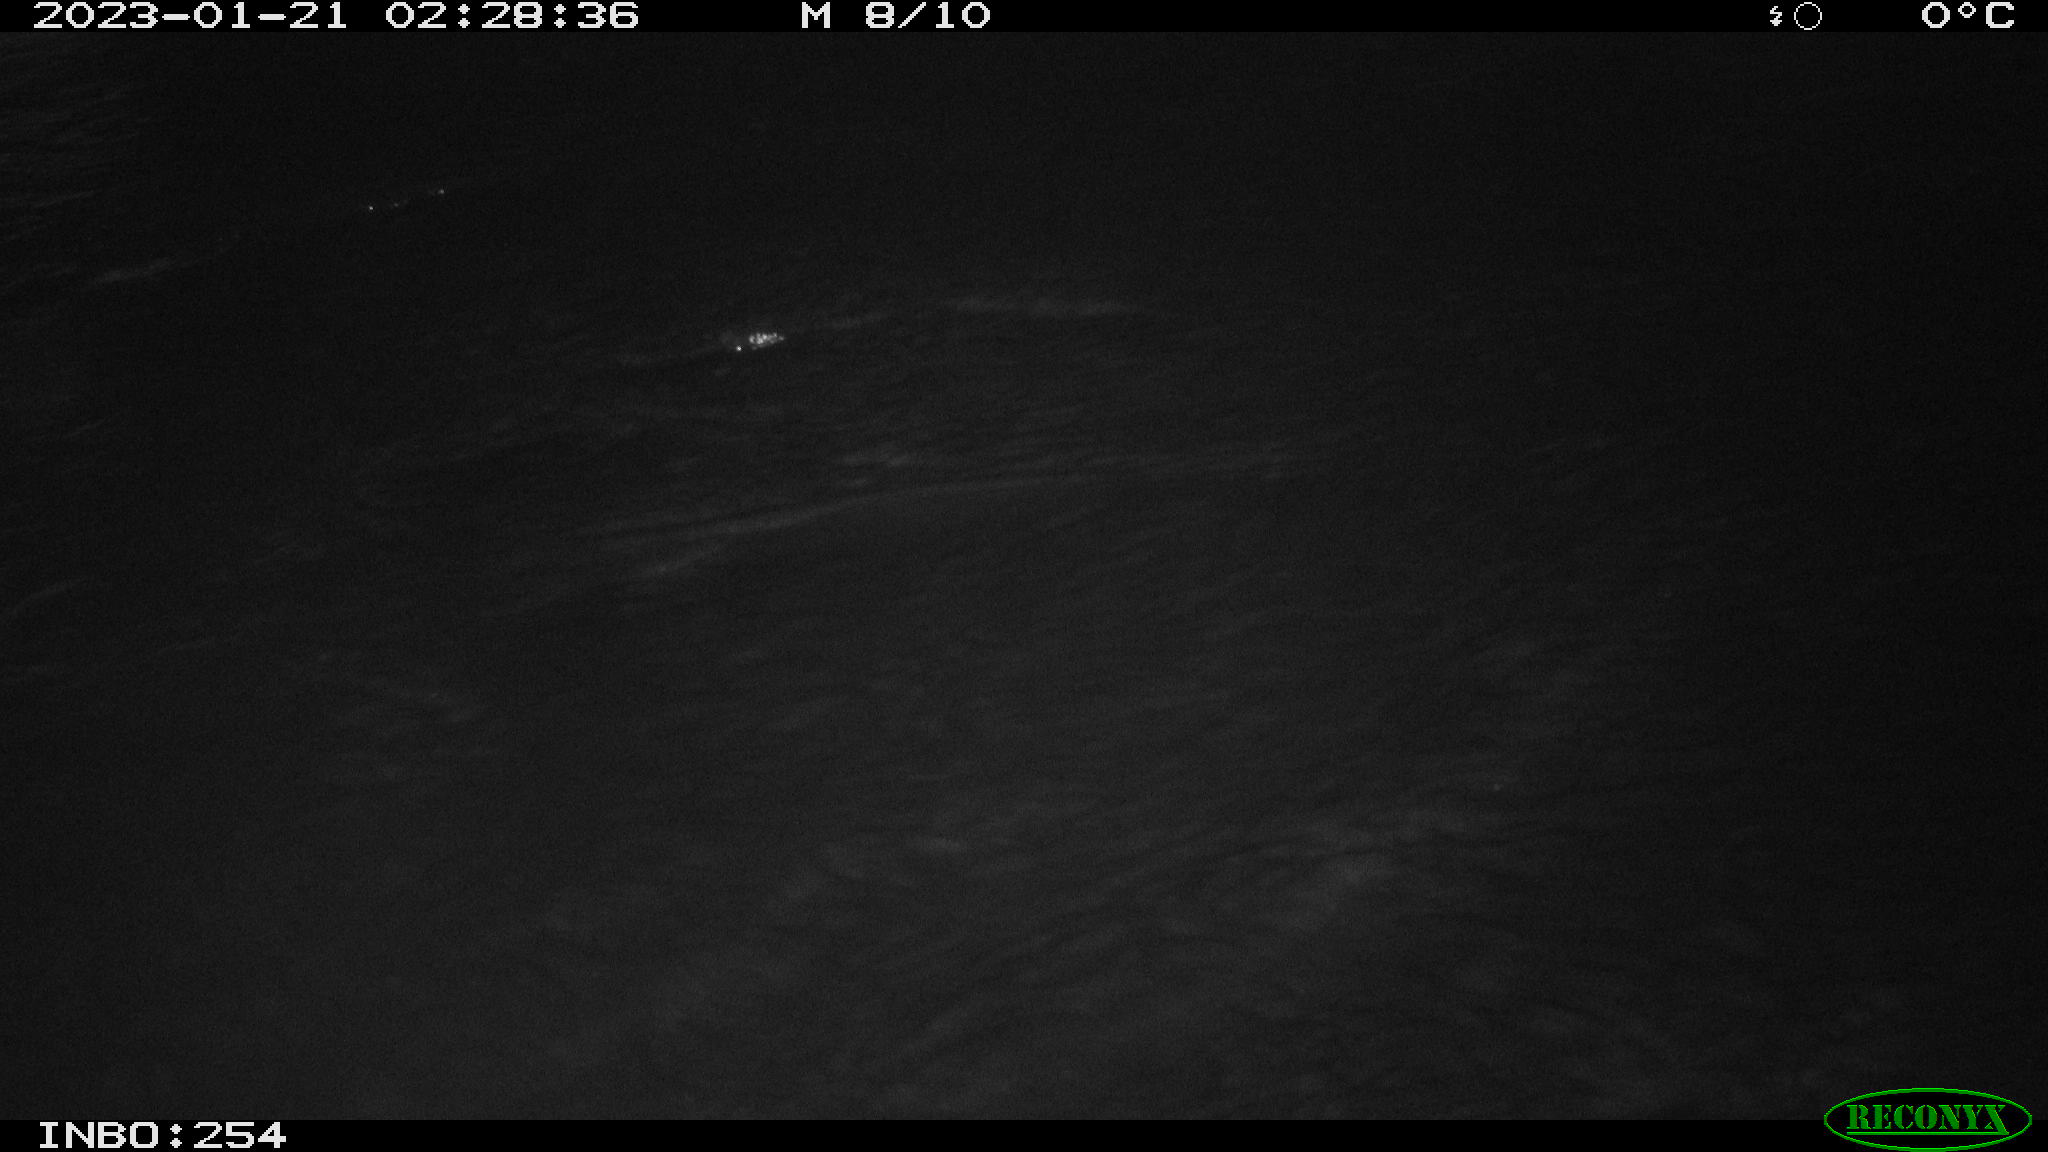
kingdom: Animalia
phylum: Chordata
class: Mammalia
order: Rodentia
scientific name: Rodentia
